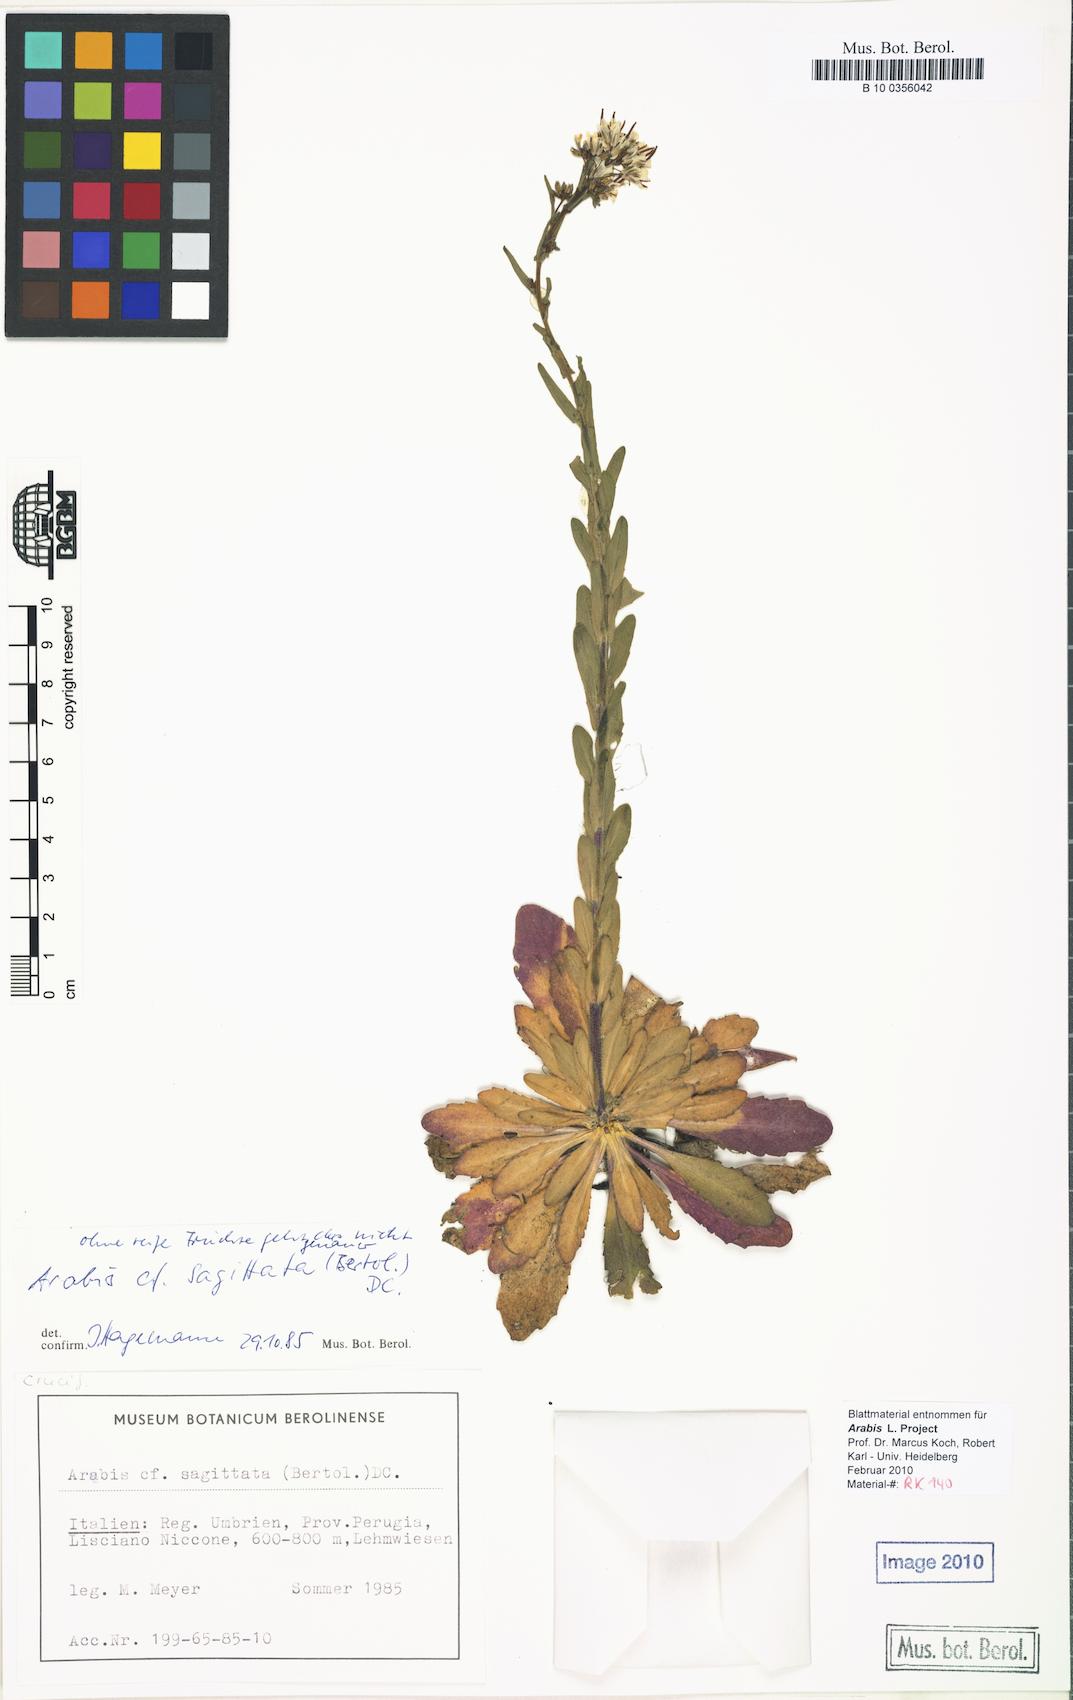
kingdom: Plantae
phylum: Tracheophyta
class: Magnoliopsida
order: Brassicales
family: Brassicaceae
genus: Arabis
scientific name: Arabis sagittata
